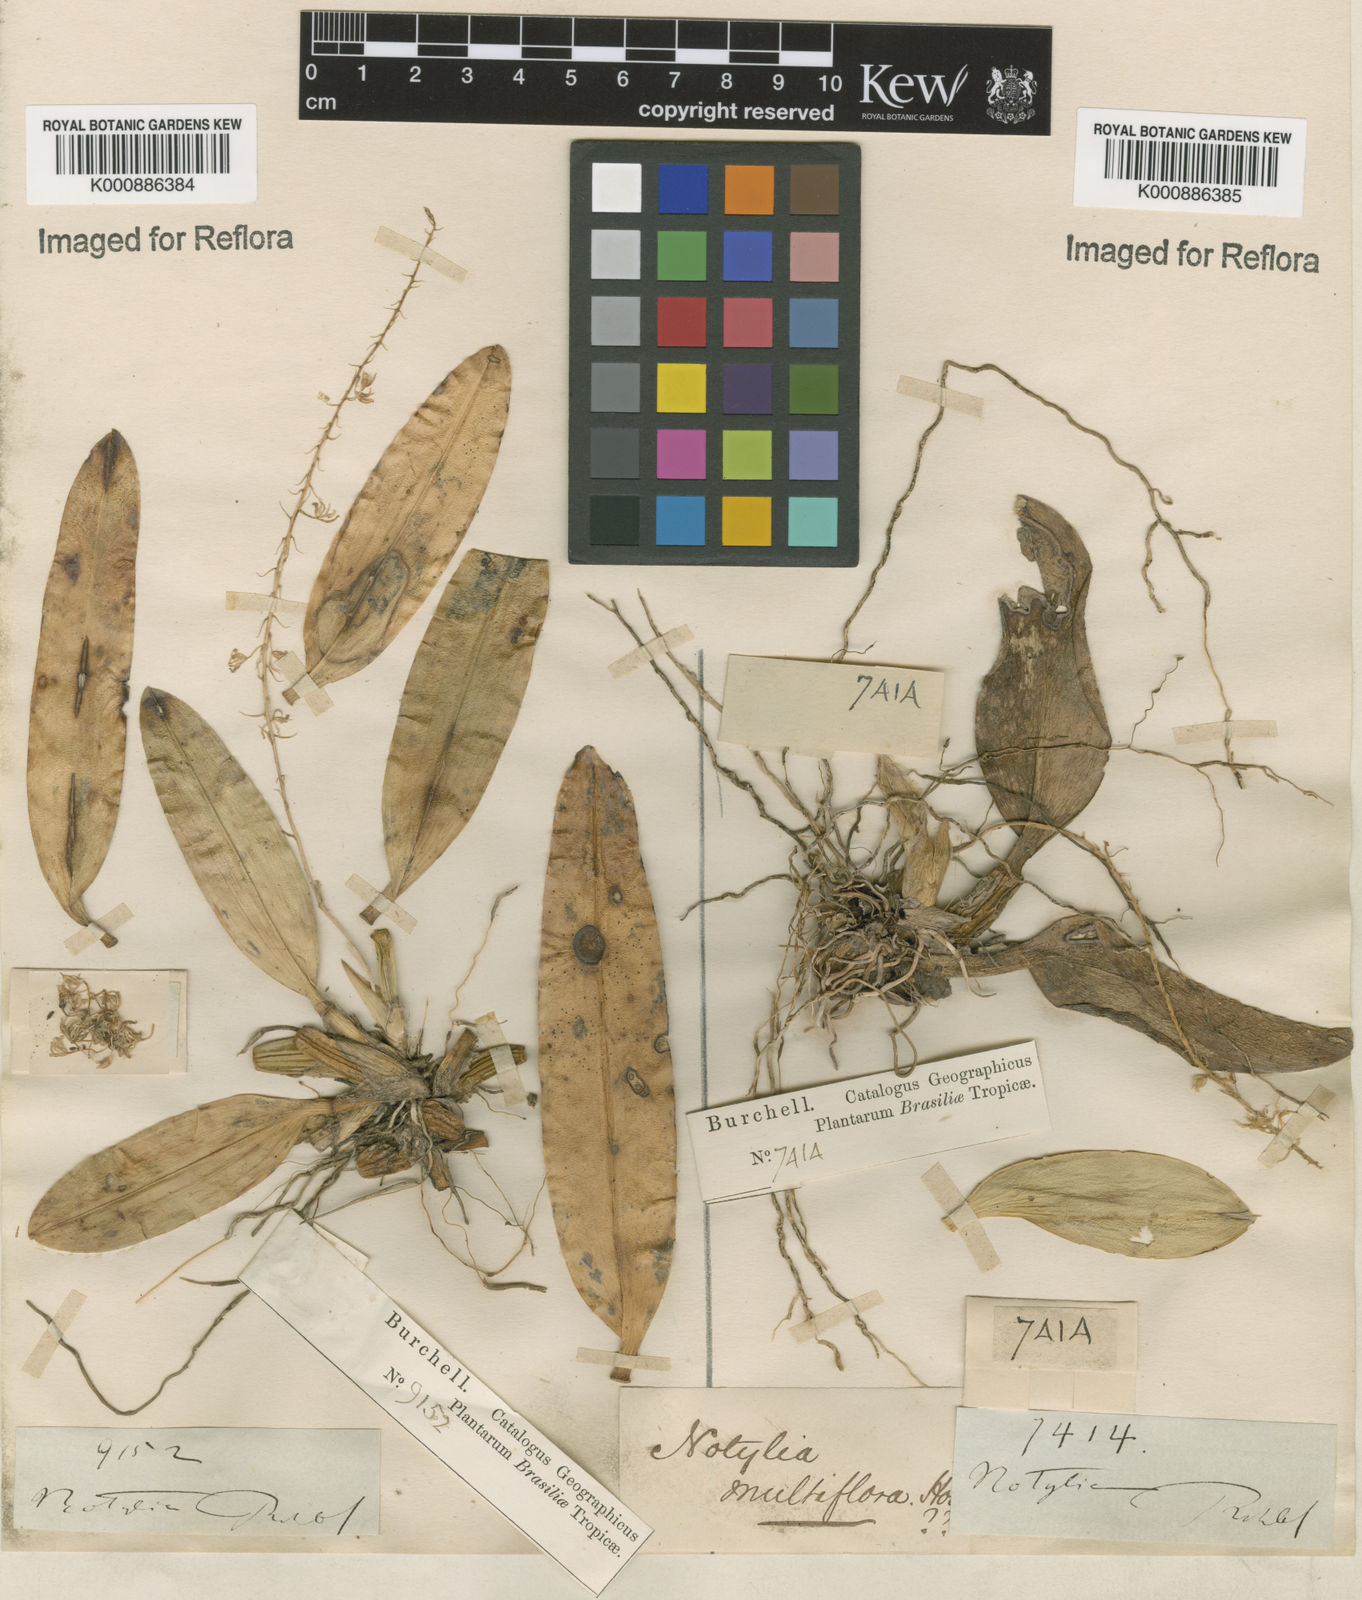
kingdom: Plantae
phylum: Tracheophyta
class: Liliopsida
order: Asparagales
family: Orchidaceae
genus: Notylia
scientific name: Notylia sagittifera
